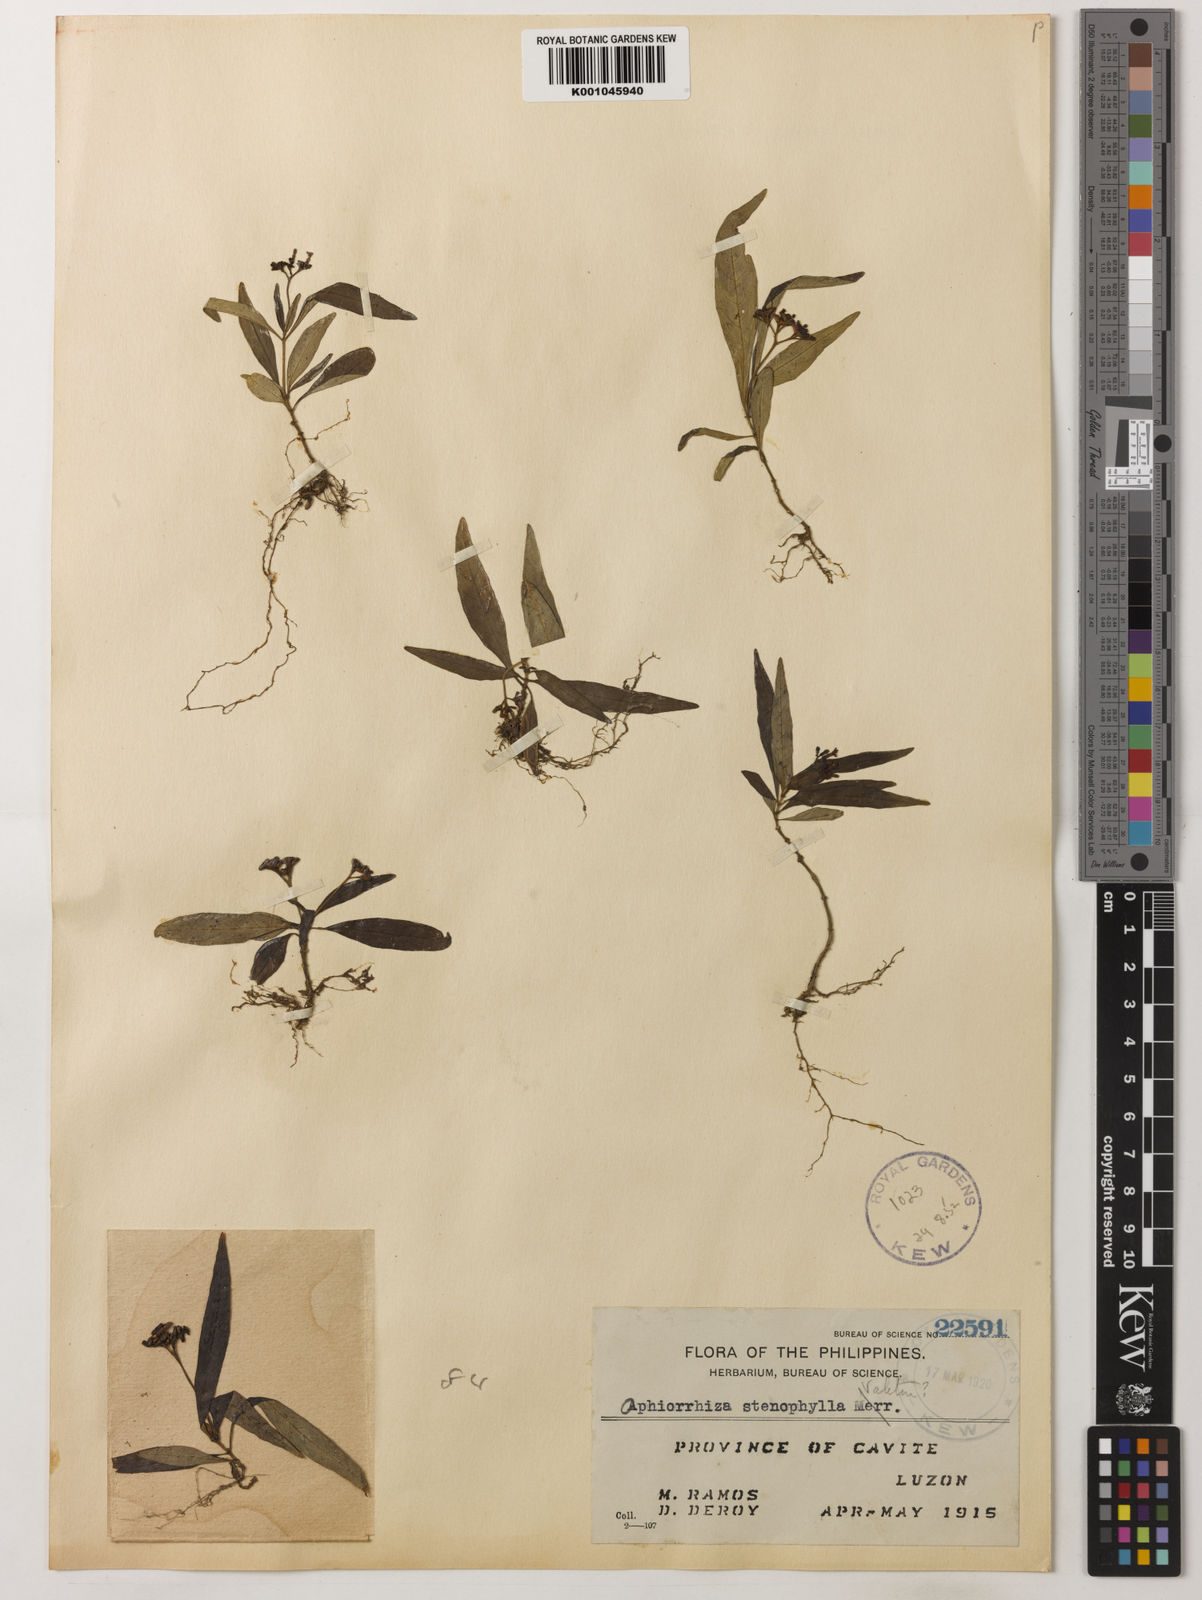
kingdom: Plantae
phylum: Tracheophyta
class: Magnoliopsida
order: Gentianales
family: Rubiaceae
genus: Ophiorrhiza
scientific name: Ophiorrhiza stenophylla
